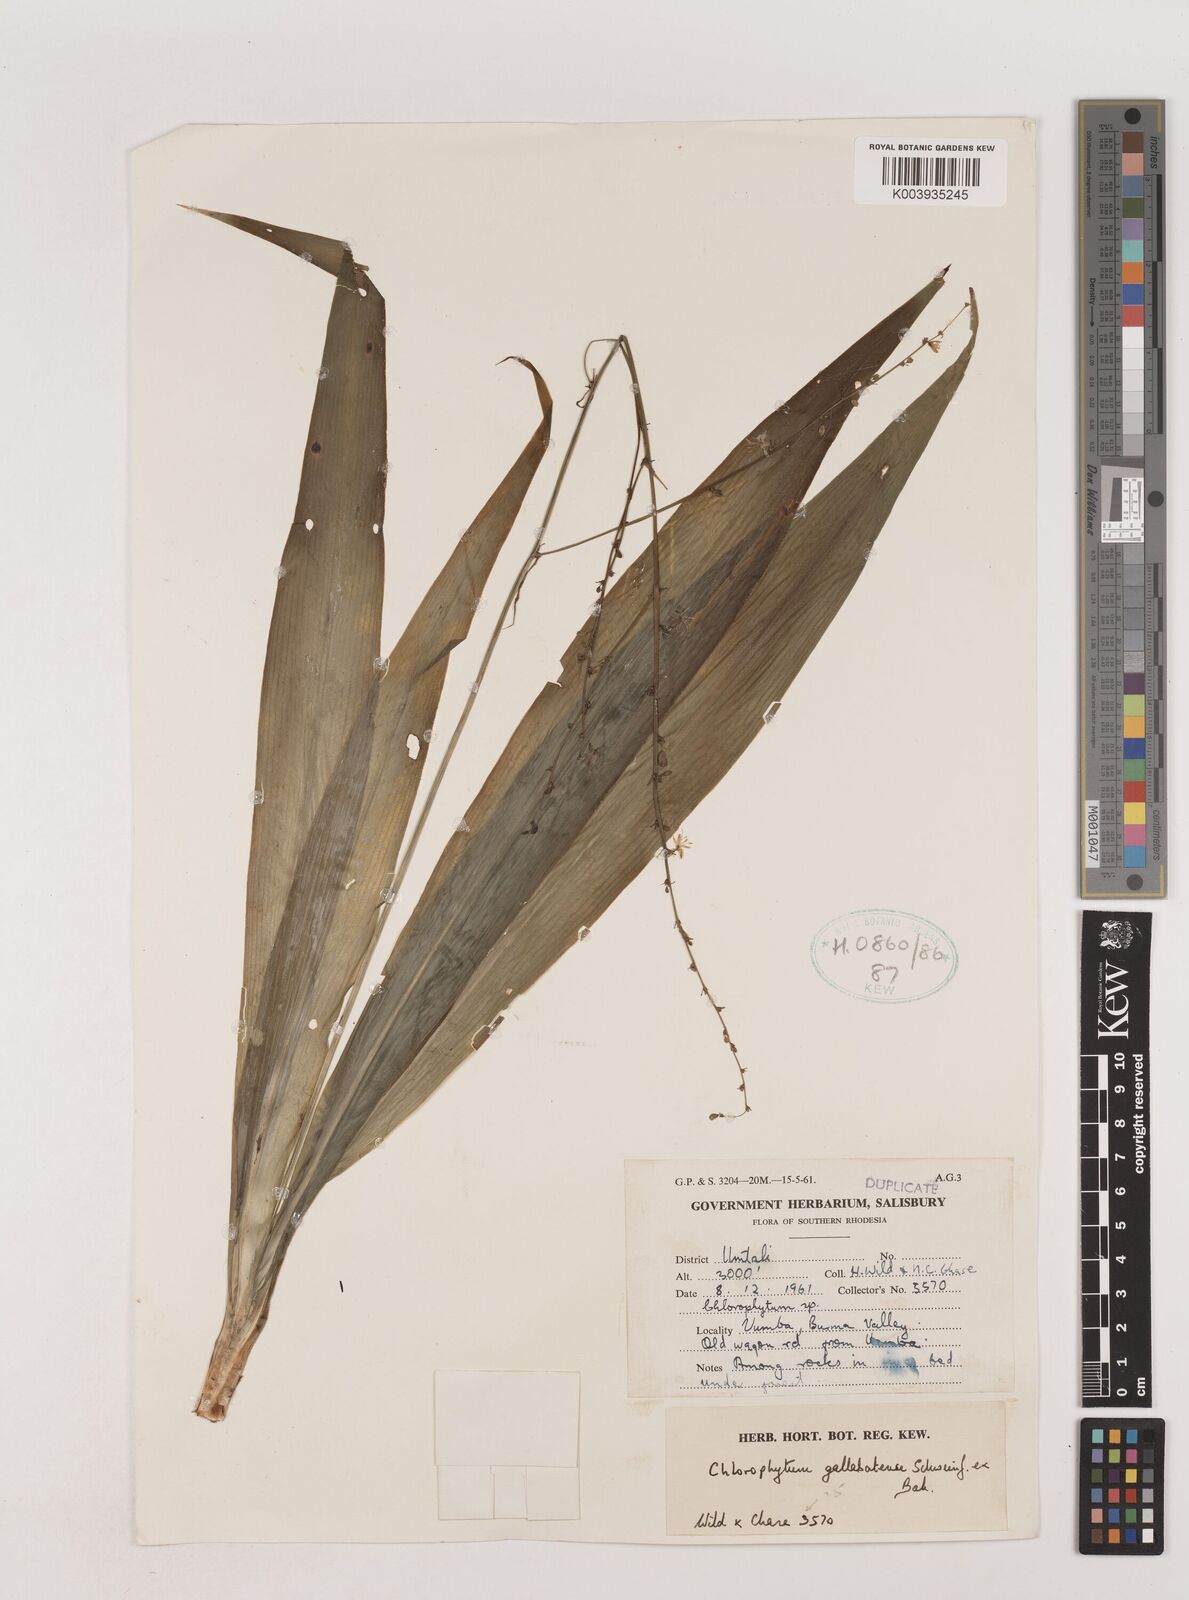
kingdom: Plantae
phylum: Tracheophyta
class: Liliopsida
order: Asparagales
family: Asparagaceae
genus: Chlorophytum
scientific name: Chlorophytum gallabatense
